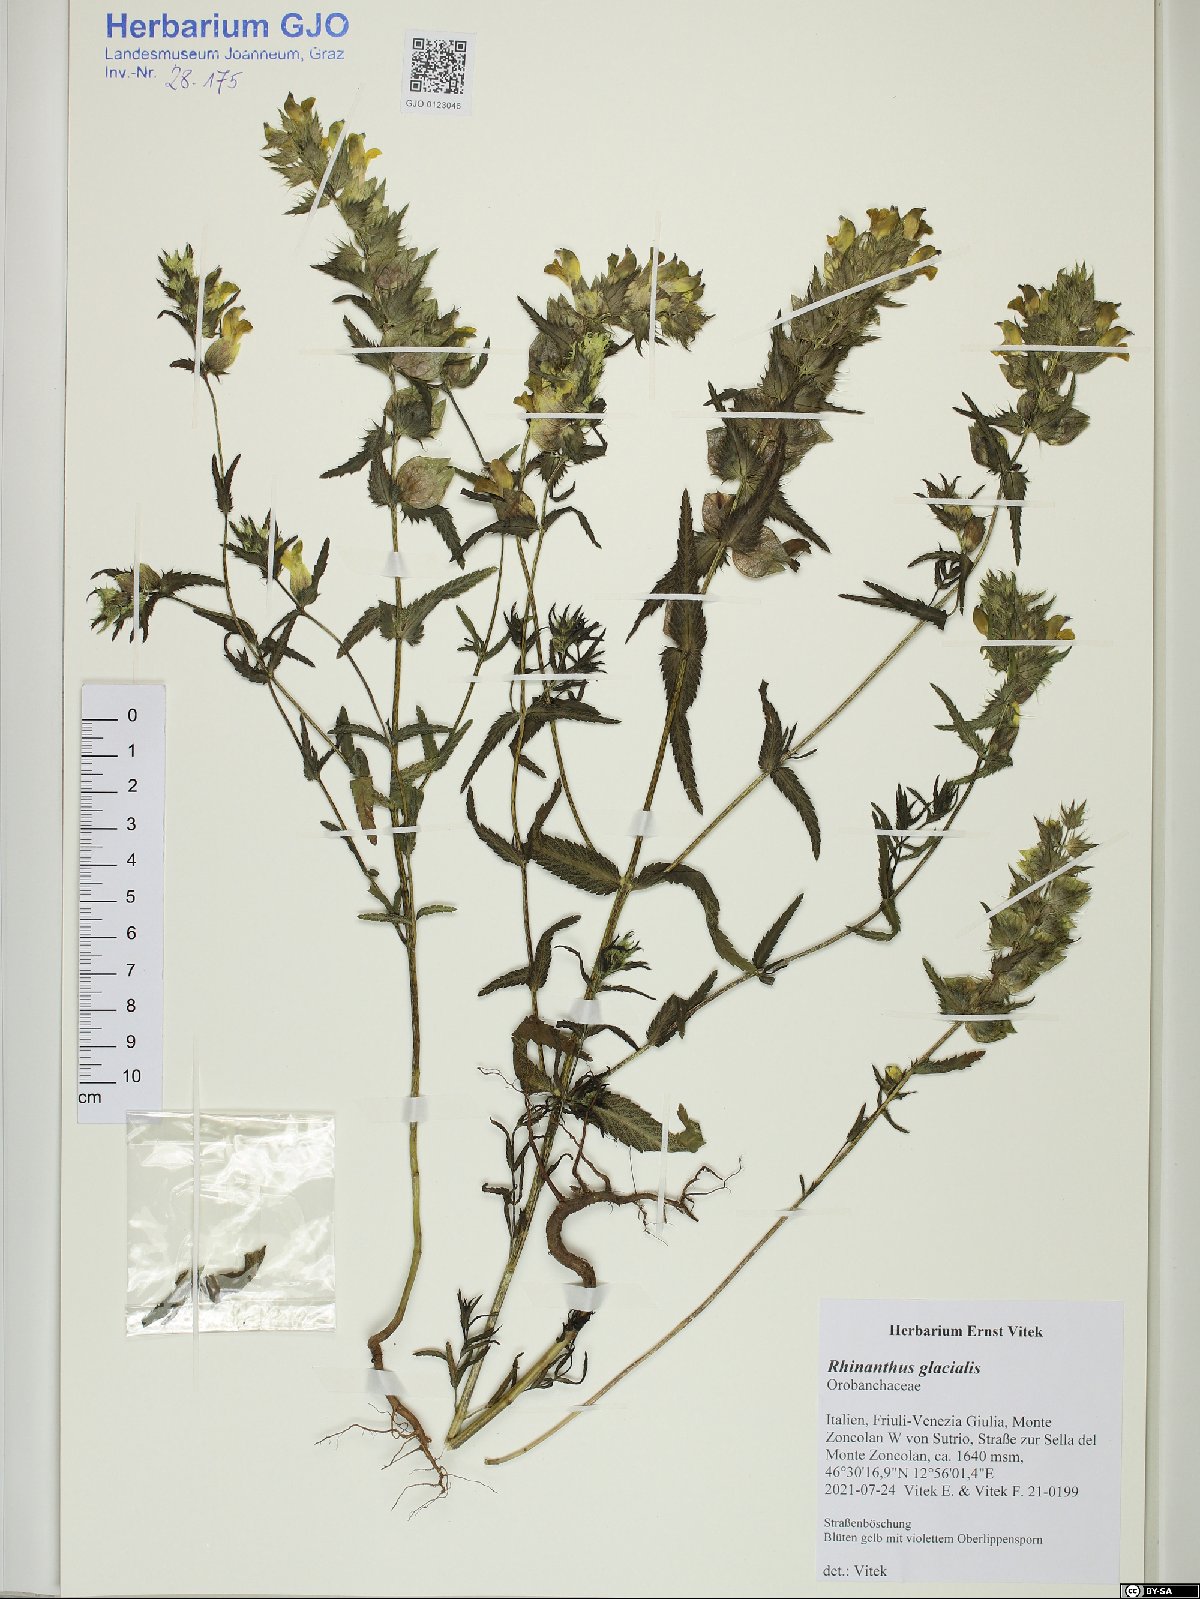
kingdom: Plantae
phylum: Tracheophyta
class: Magnoliopsida
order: Lamiales
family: Orobanchaceae
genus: Rhinanthus
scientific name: Rhinanthus glacialis
